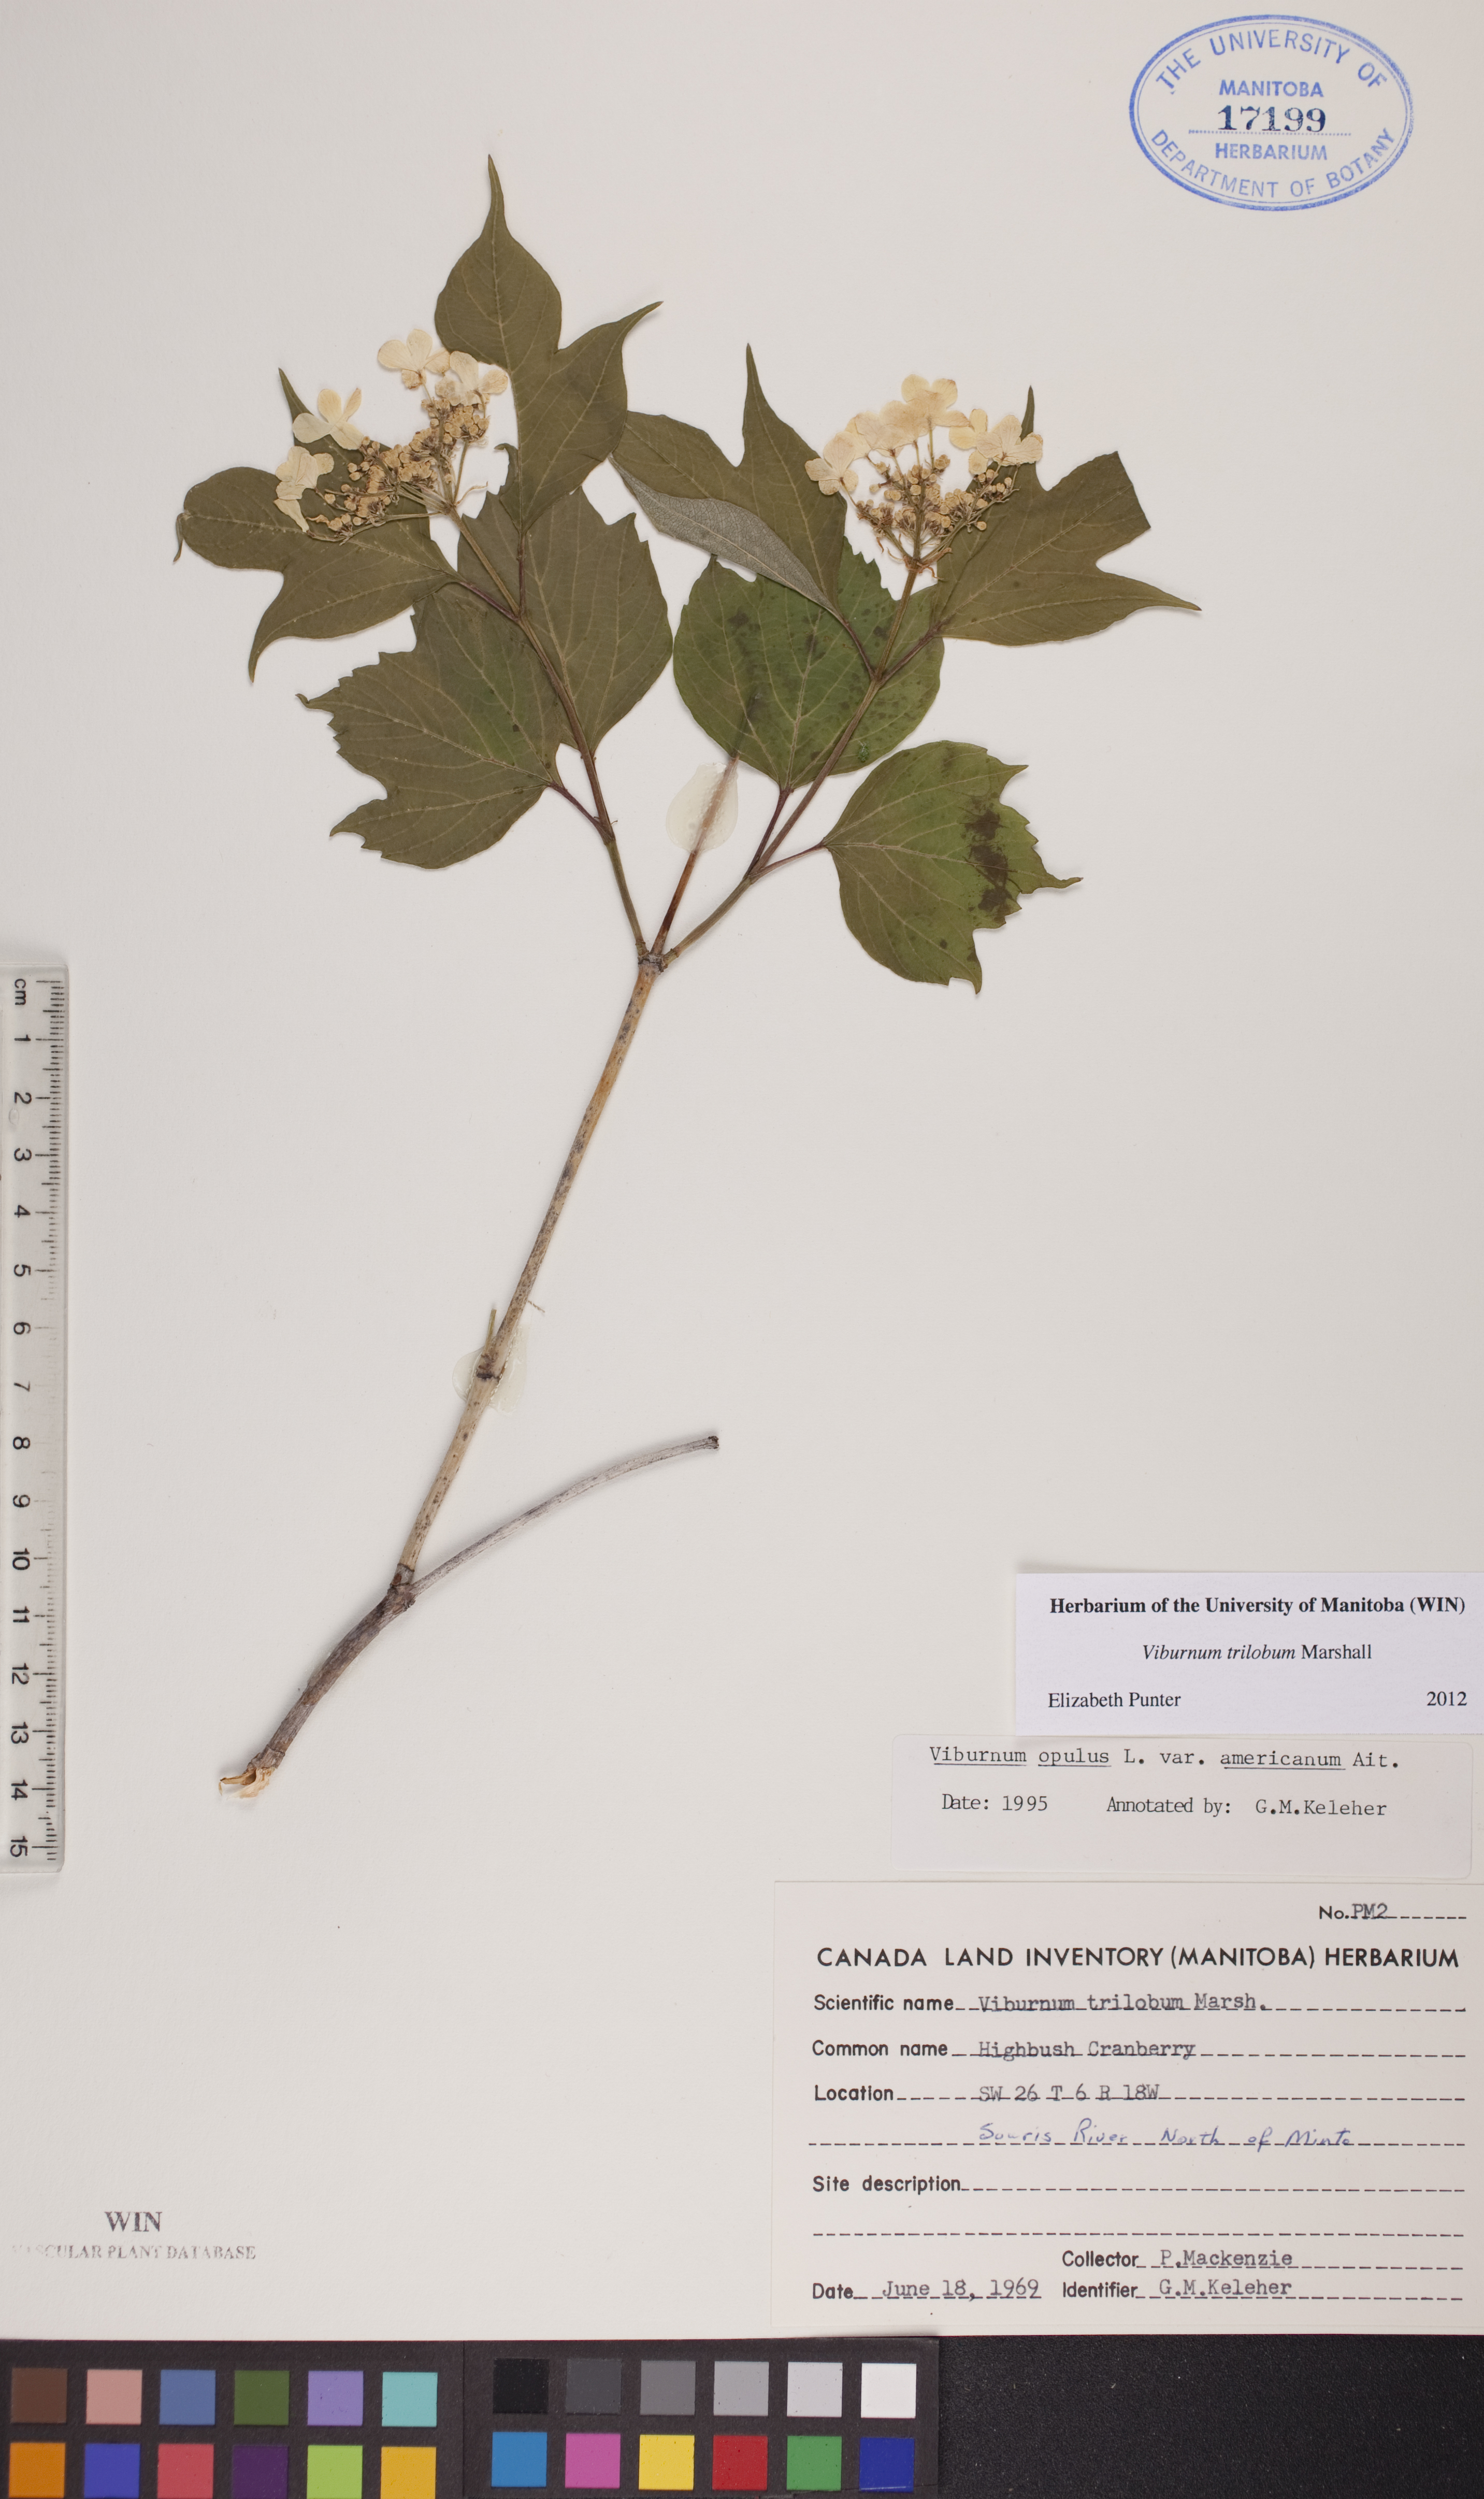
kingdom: Plantae
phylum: Tracheophyta
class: Magnoliopsida
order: Dipsacales
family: Viburnaceae
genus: Viburnum
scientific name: Viburnum trilobum
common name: American cranberrybush
